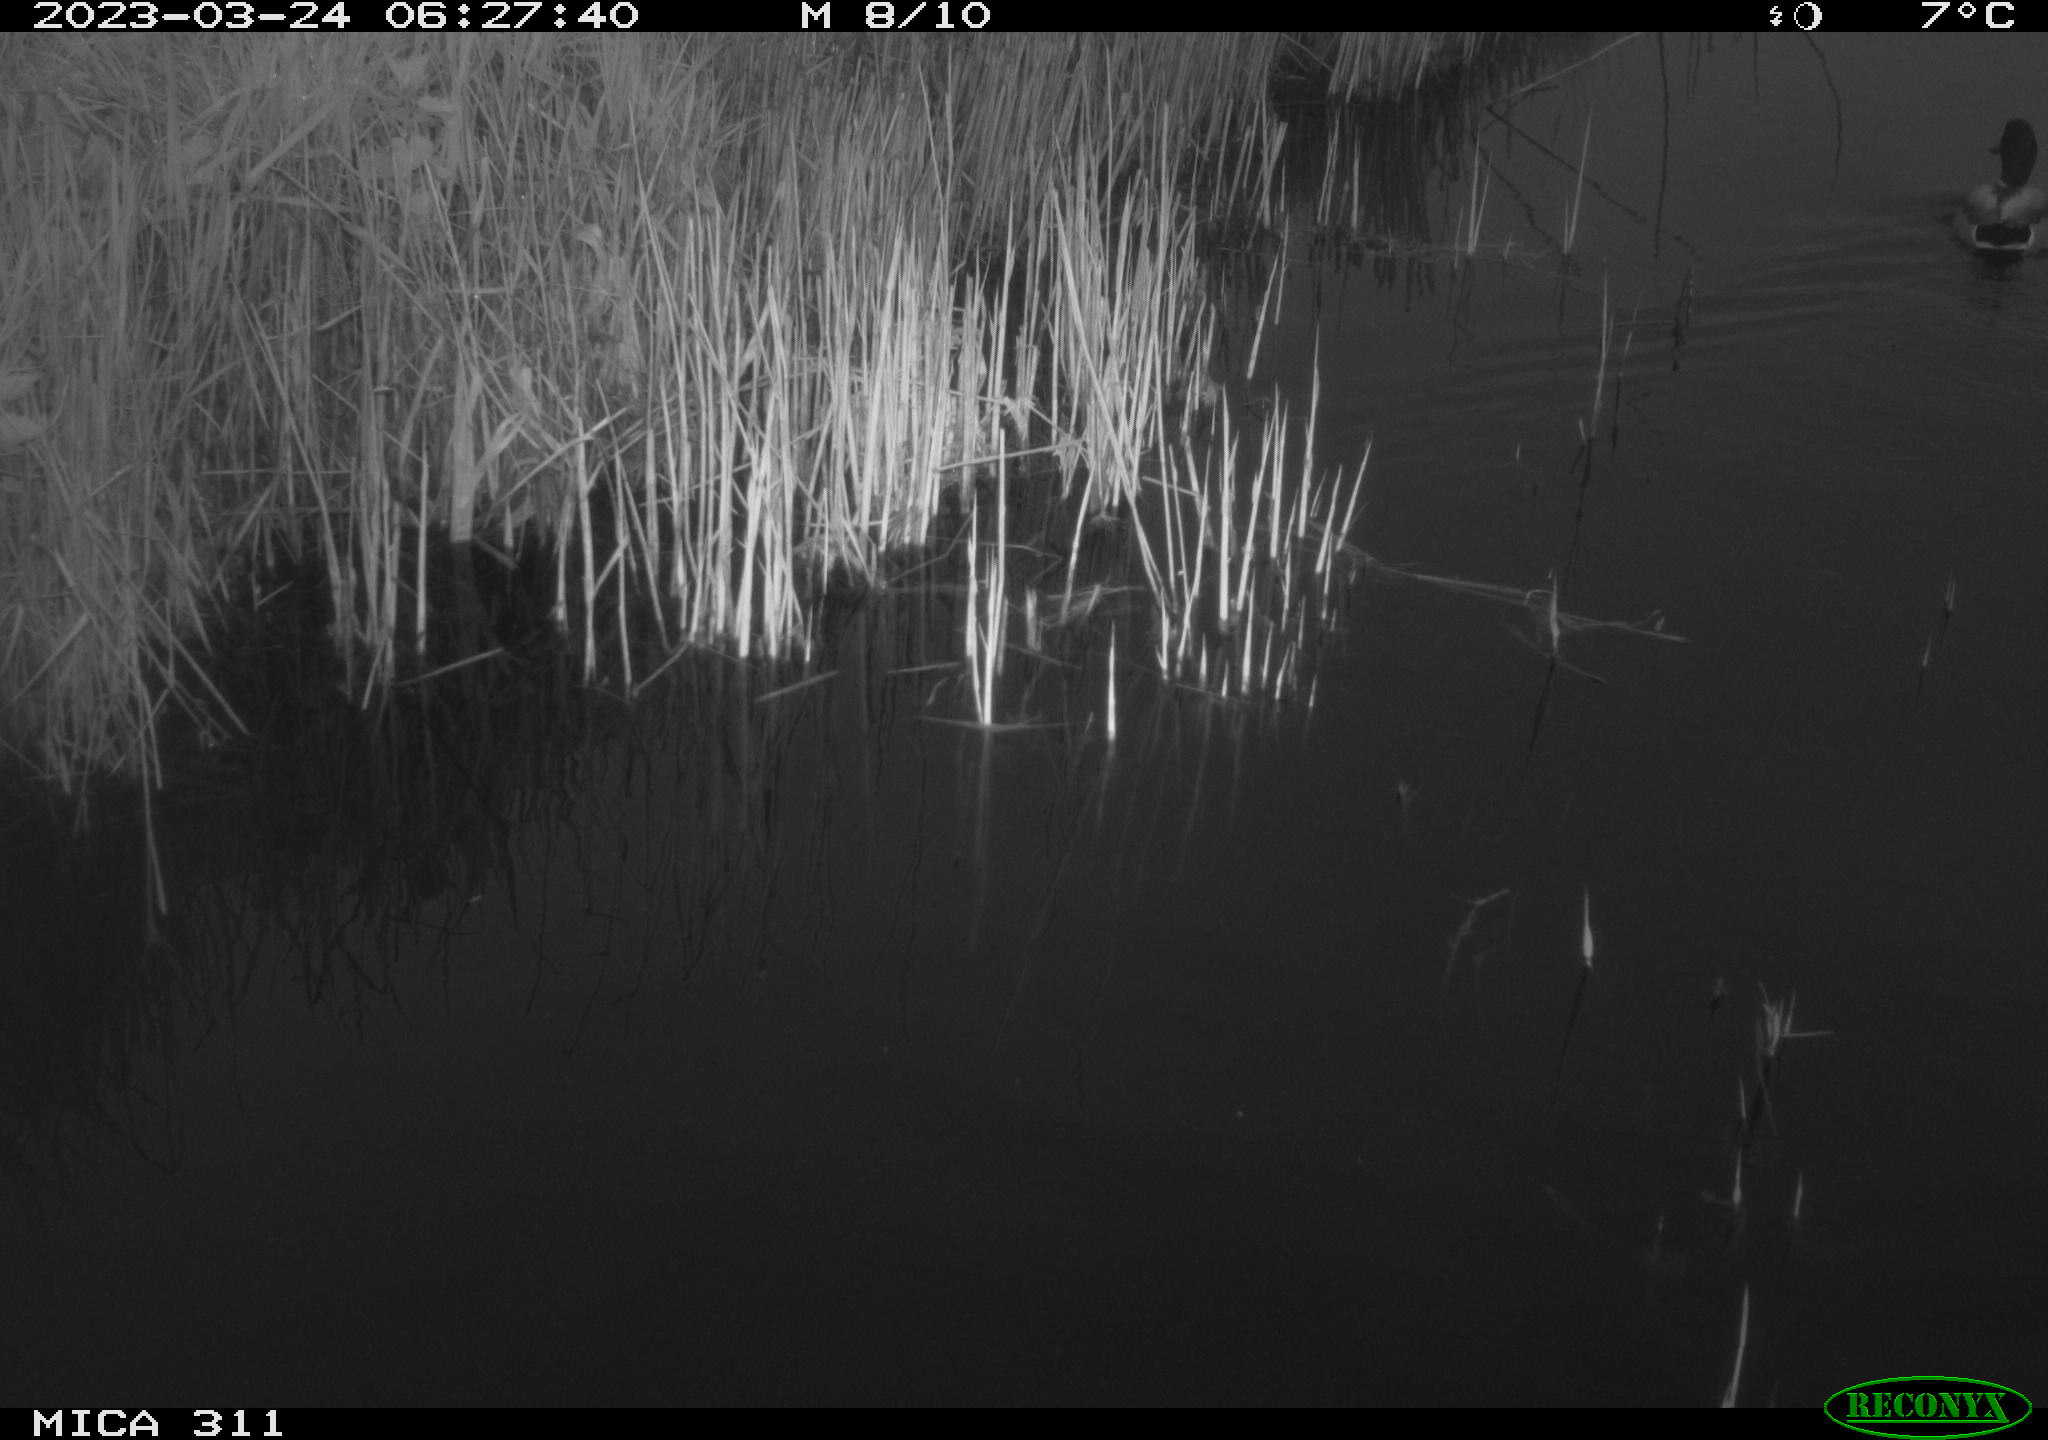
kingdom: Animalia
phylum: Chordata
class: Aves
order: Anseriformes
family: Anatidae
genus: Anas
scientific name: Anas
